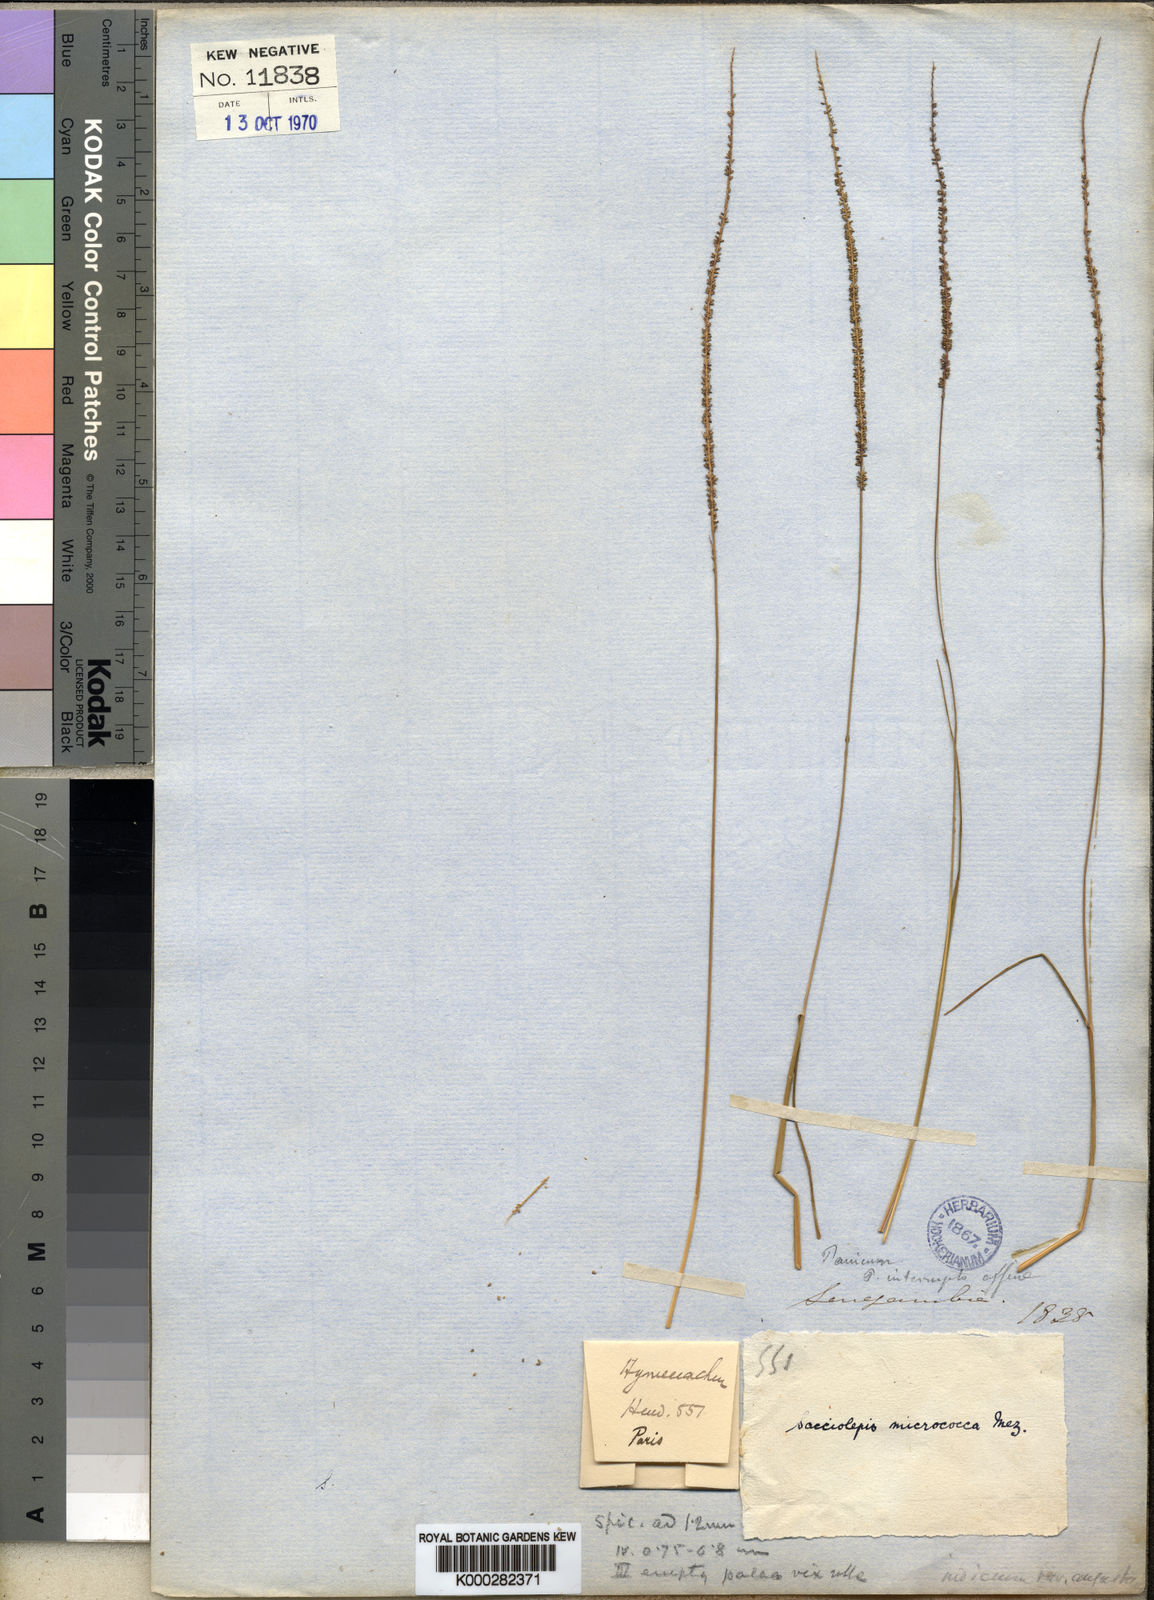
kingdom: Plantae
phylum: Tracheophyta
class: Liliopsida
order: Poales
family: Poaceae
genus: Sacciolepis
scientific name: Sacciolepis micrococca
